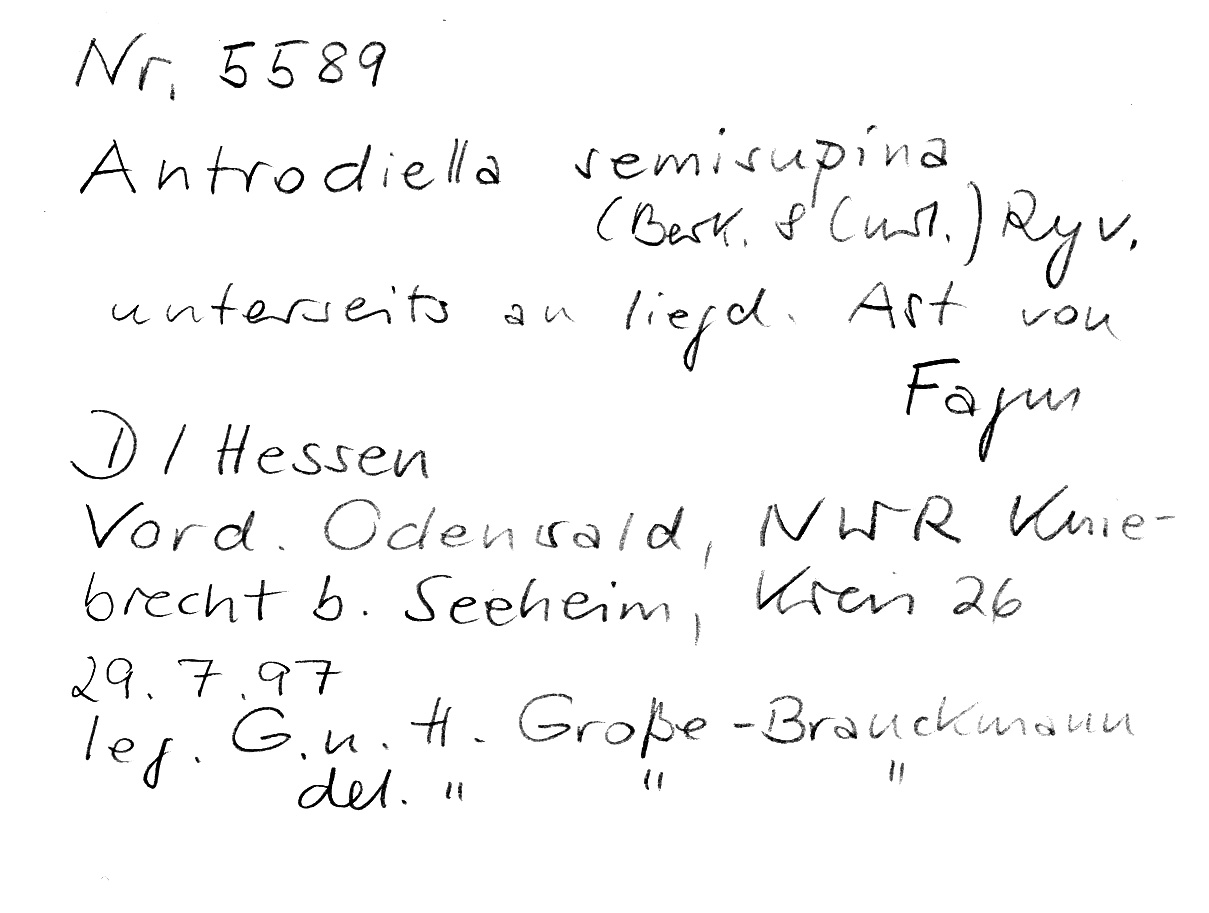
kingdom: Plantae
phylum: Tracheophyta
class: Magnoliopsida
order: Fagales
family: Fagaceae
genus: Fagus
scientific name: Fagus sylvatica
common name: Beech
